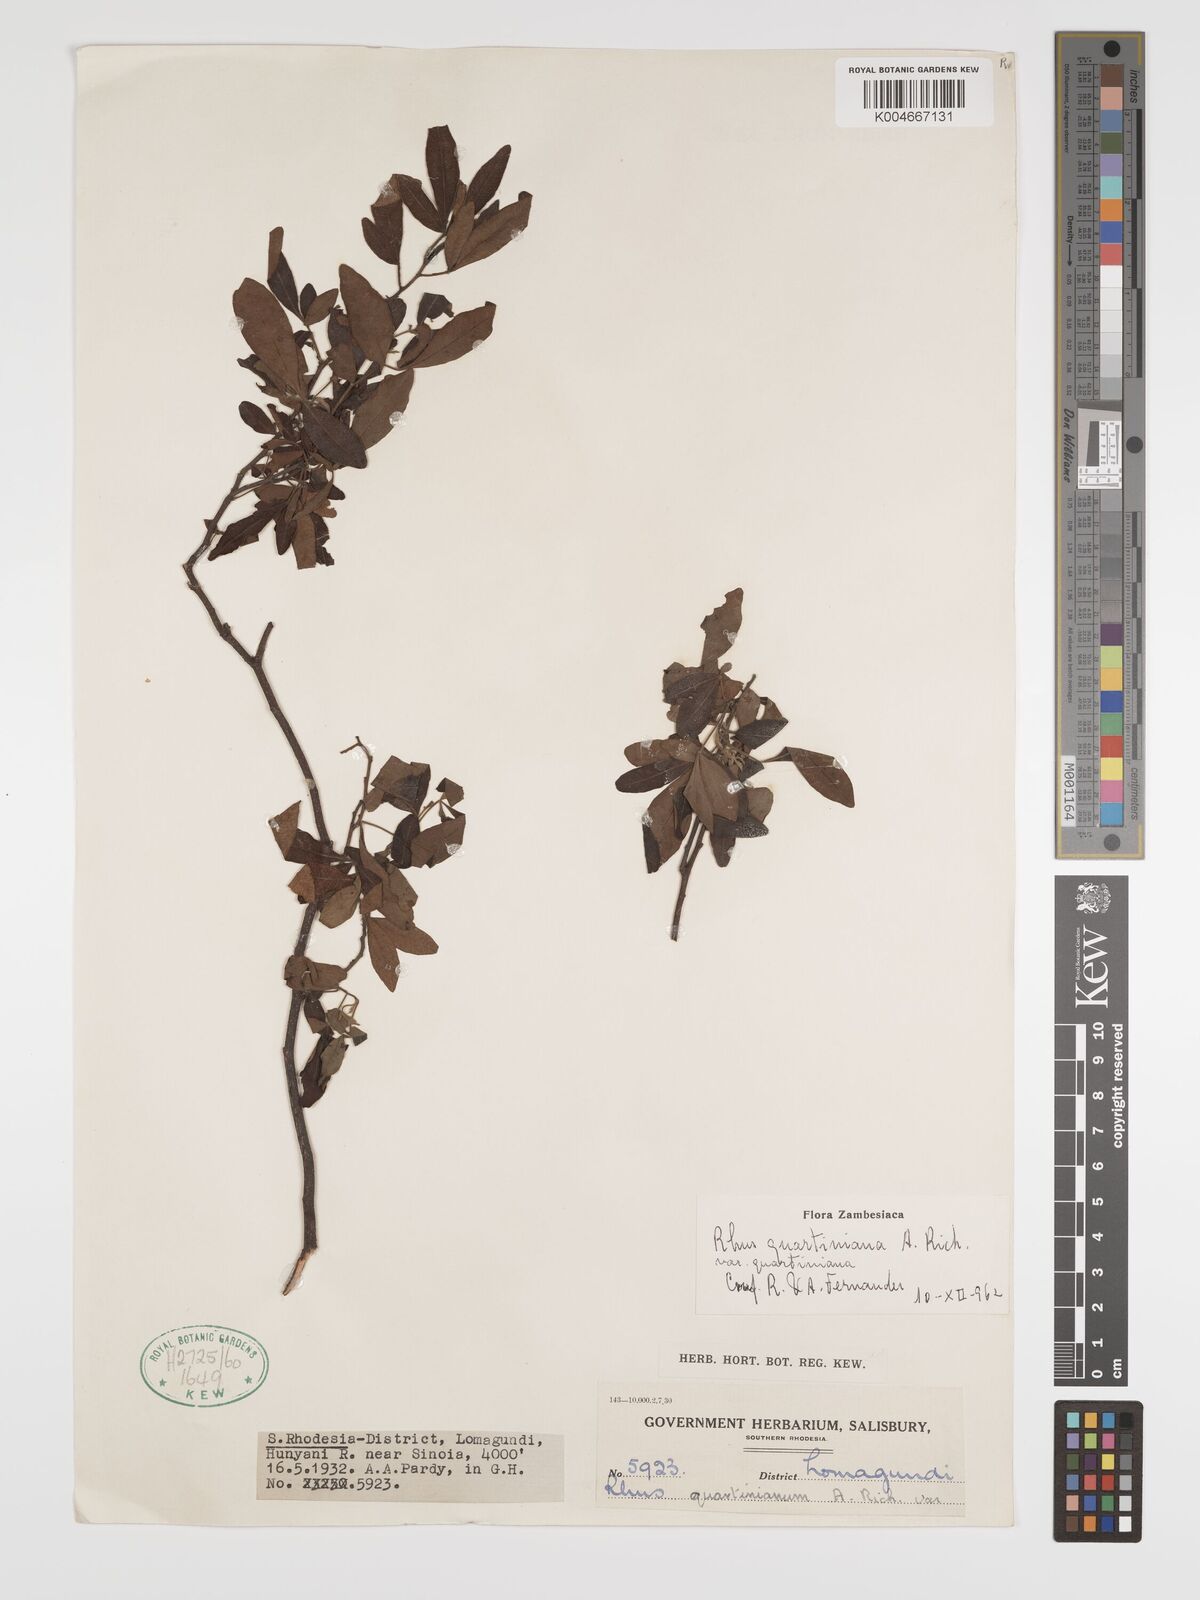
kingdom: Plantae
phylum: Tracheophyta
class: Magnoliopsida
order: Sapindales
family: Anacardiaceae
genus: Searsia
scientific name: Searsia quartiniana
